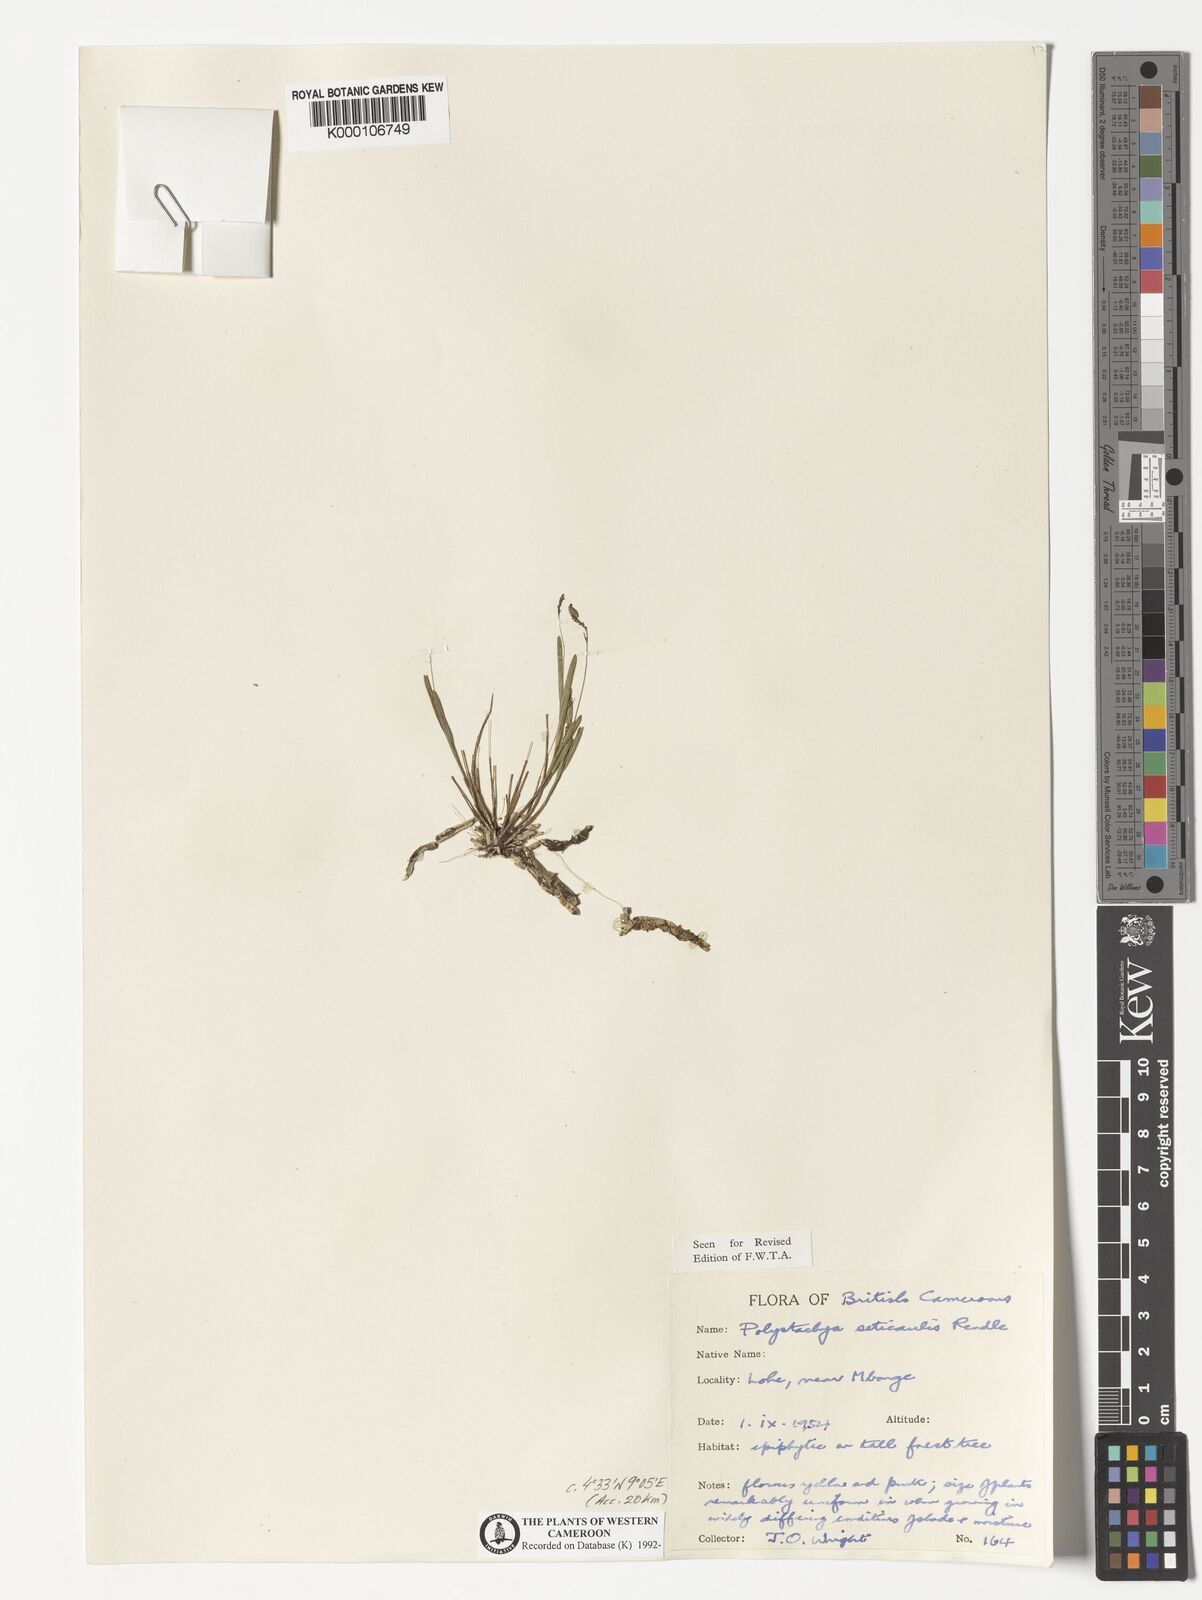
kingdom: Plantae
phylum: Tracheophyta
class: Liliopsida
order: Asparagales
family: Orchidaceae
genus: Polystachya
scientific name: Polystachya seticaulis
